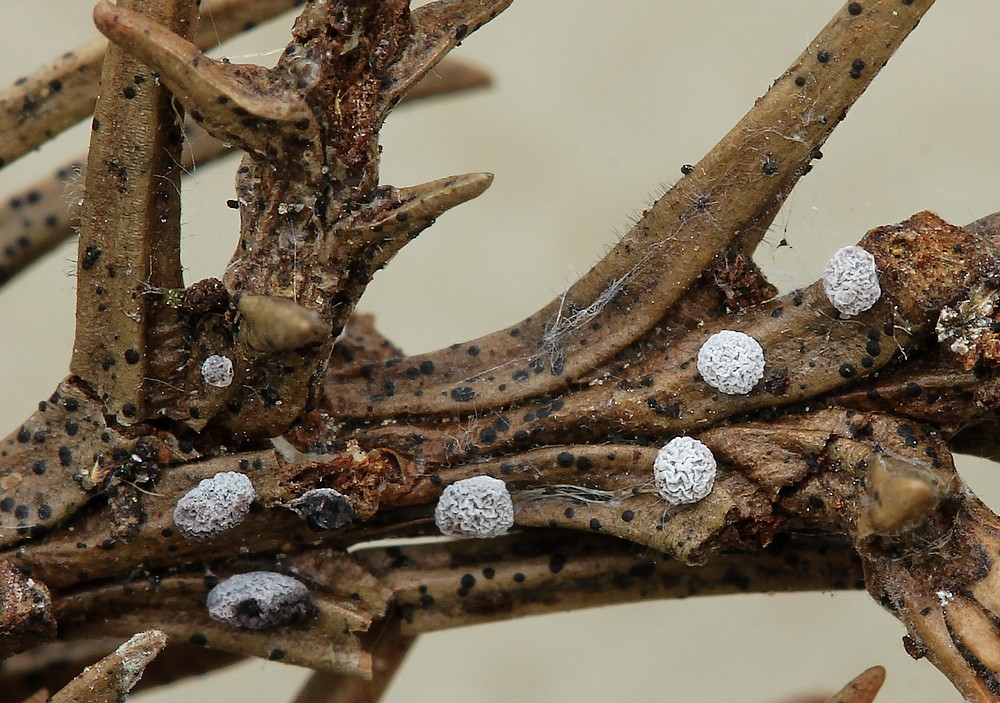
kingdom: Protozoa
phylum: Mycetozoa
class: Myxomycetes
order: Physarales
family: Didymiaceae
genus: Didymium
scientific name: Didymium squamulosum
